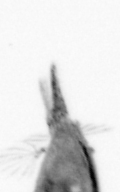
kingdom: Animalia
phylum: Arthropoda
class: Maxillopoda
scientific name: Maxillopoda
